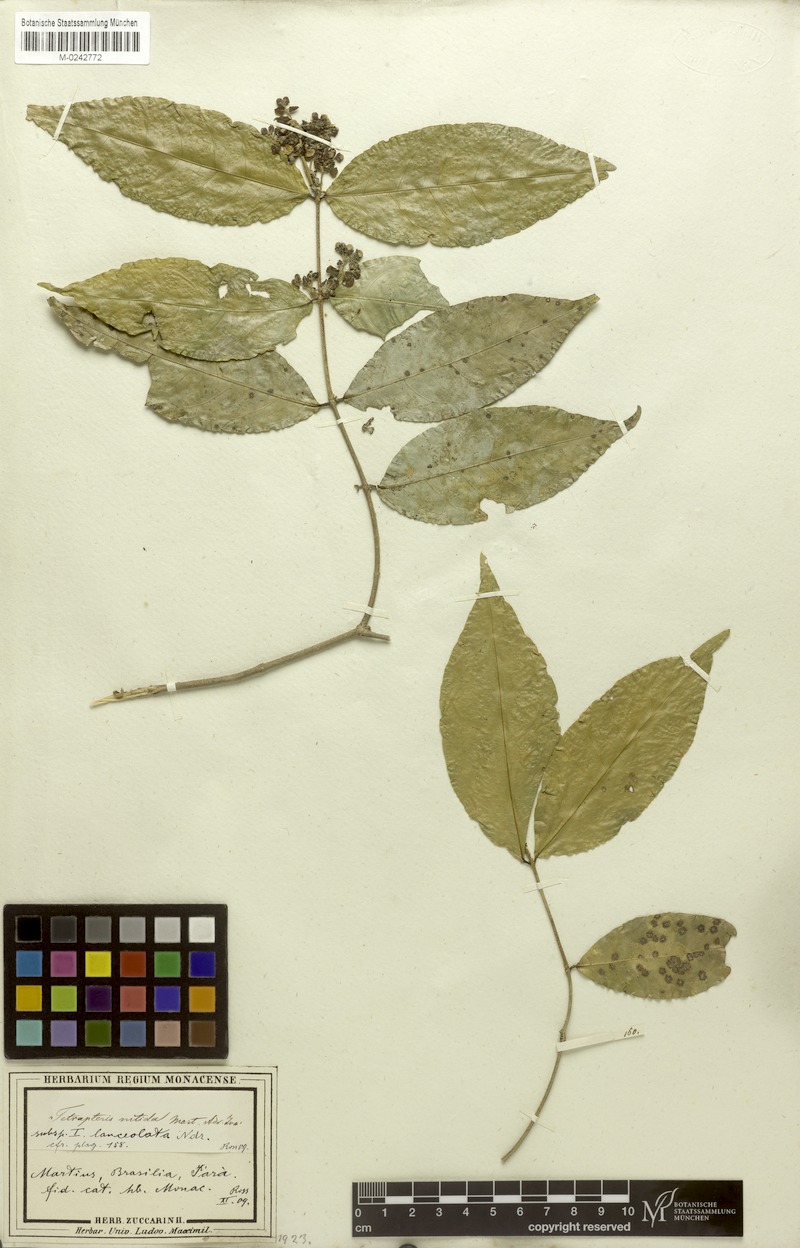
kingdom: Plantae
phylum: Tracheophyta
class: Magnoliopsida
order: Malpighiales
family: Malpighiaceae
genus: Tetrapterys
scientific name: Tetrapterys nitida
